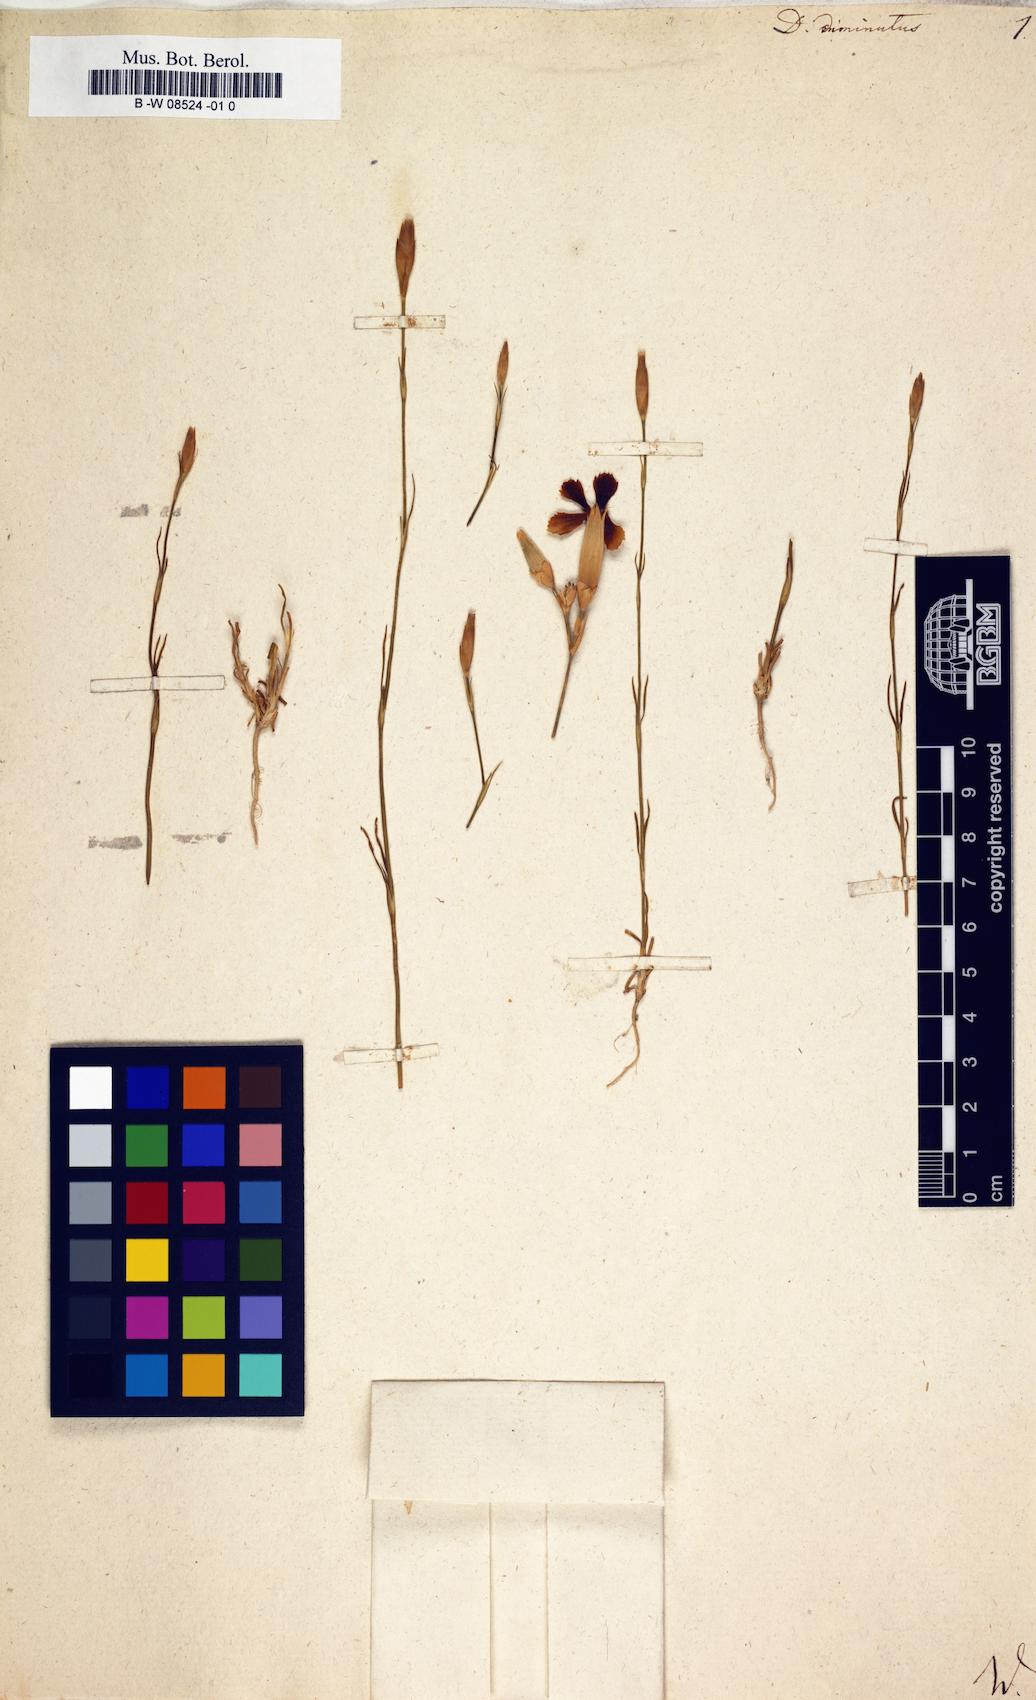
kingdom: Plantae
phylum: Tracheophyta
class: Magnoliopsida
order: Caryophyllales
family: Caryophyllaceae
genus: Petrorhagia
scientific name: Petrorhagia prolifera
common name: Proliferous pink
